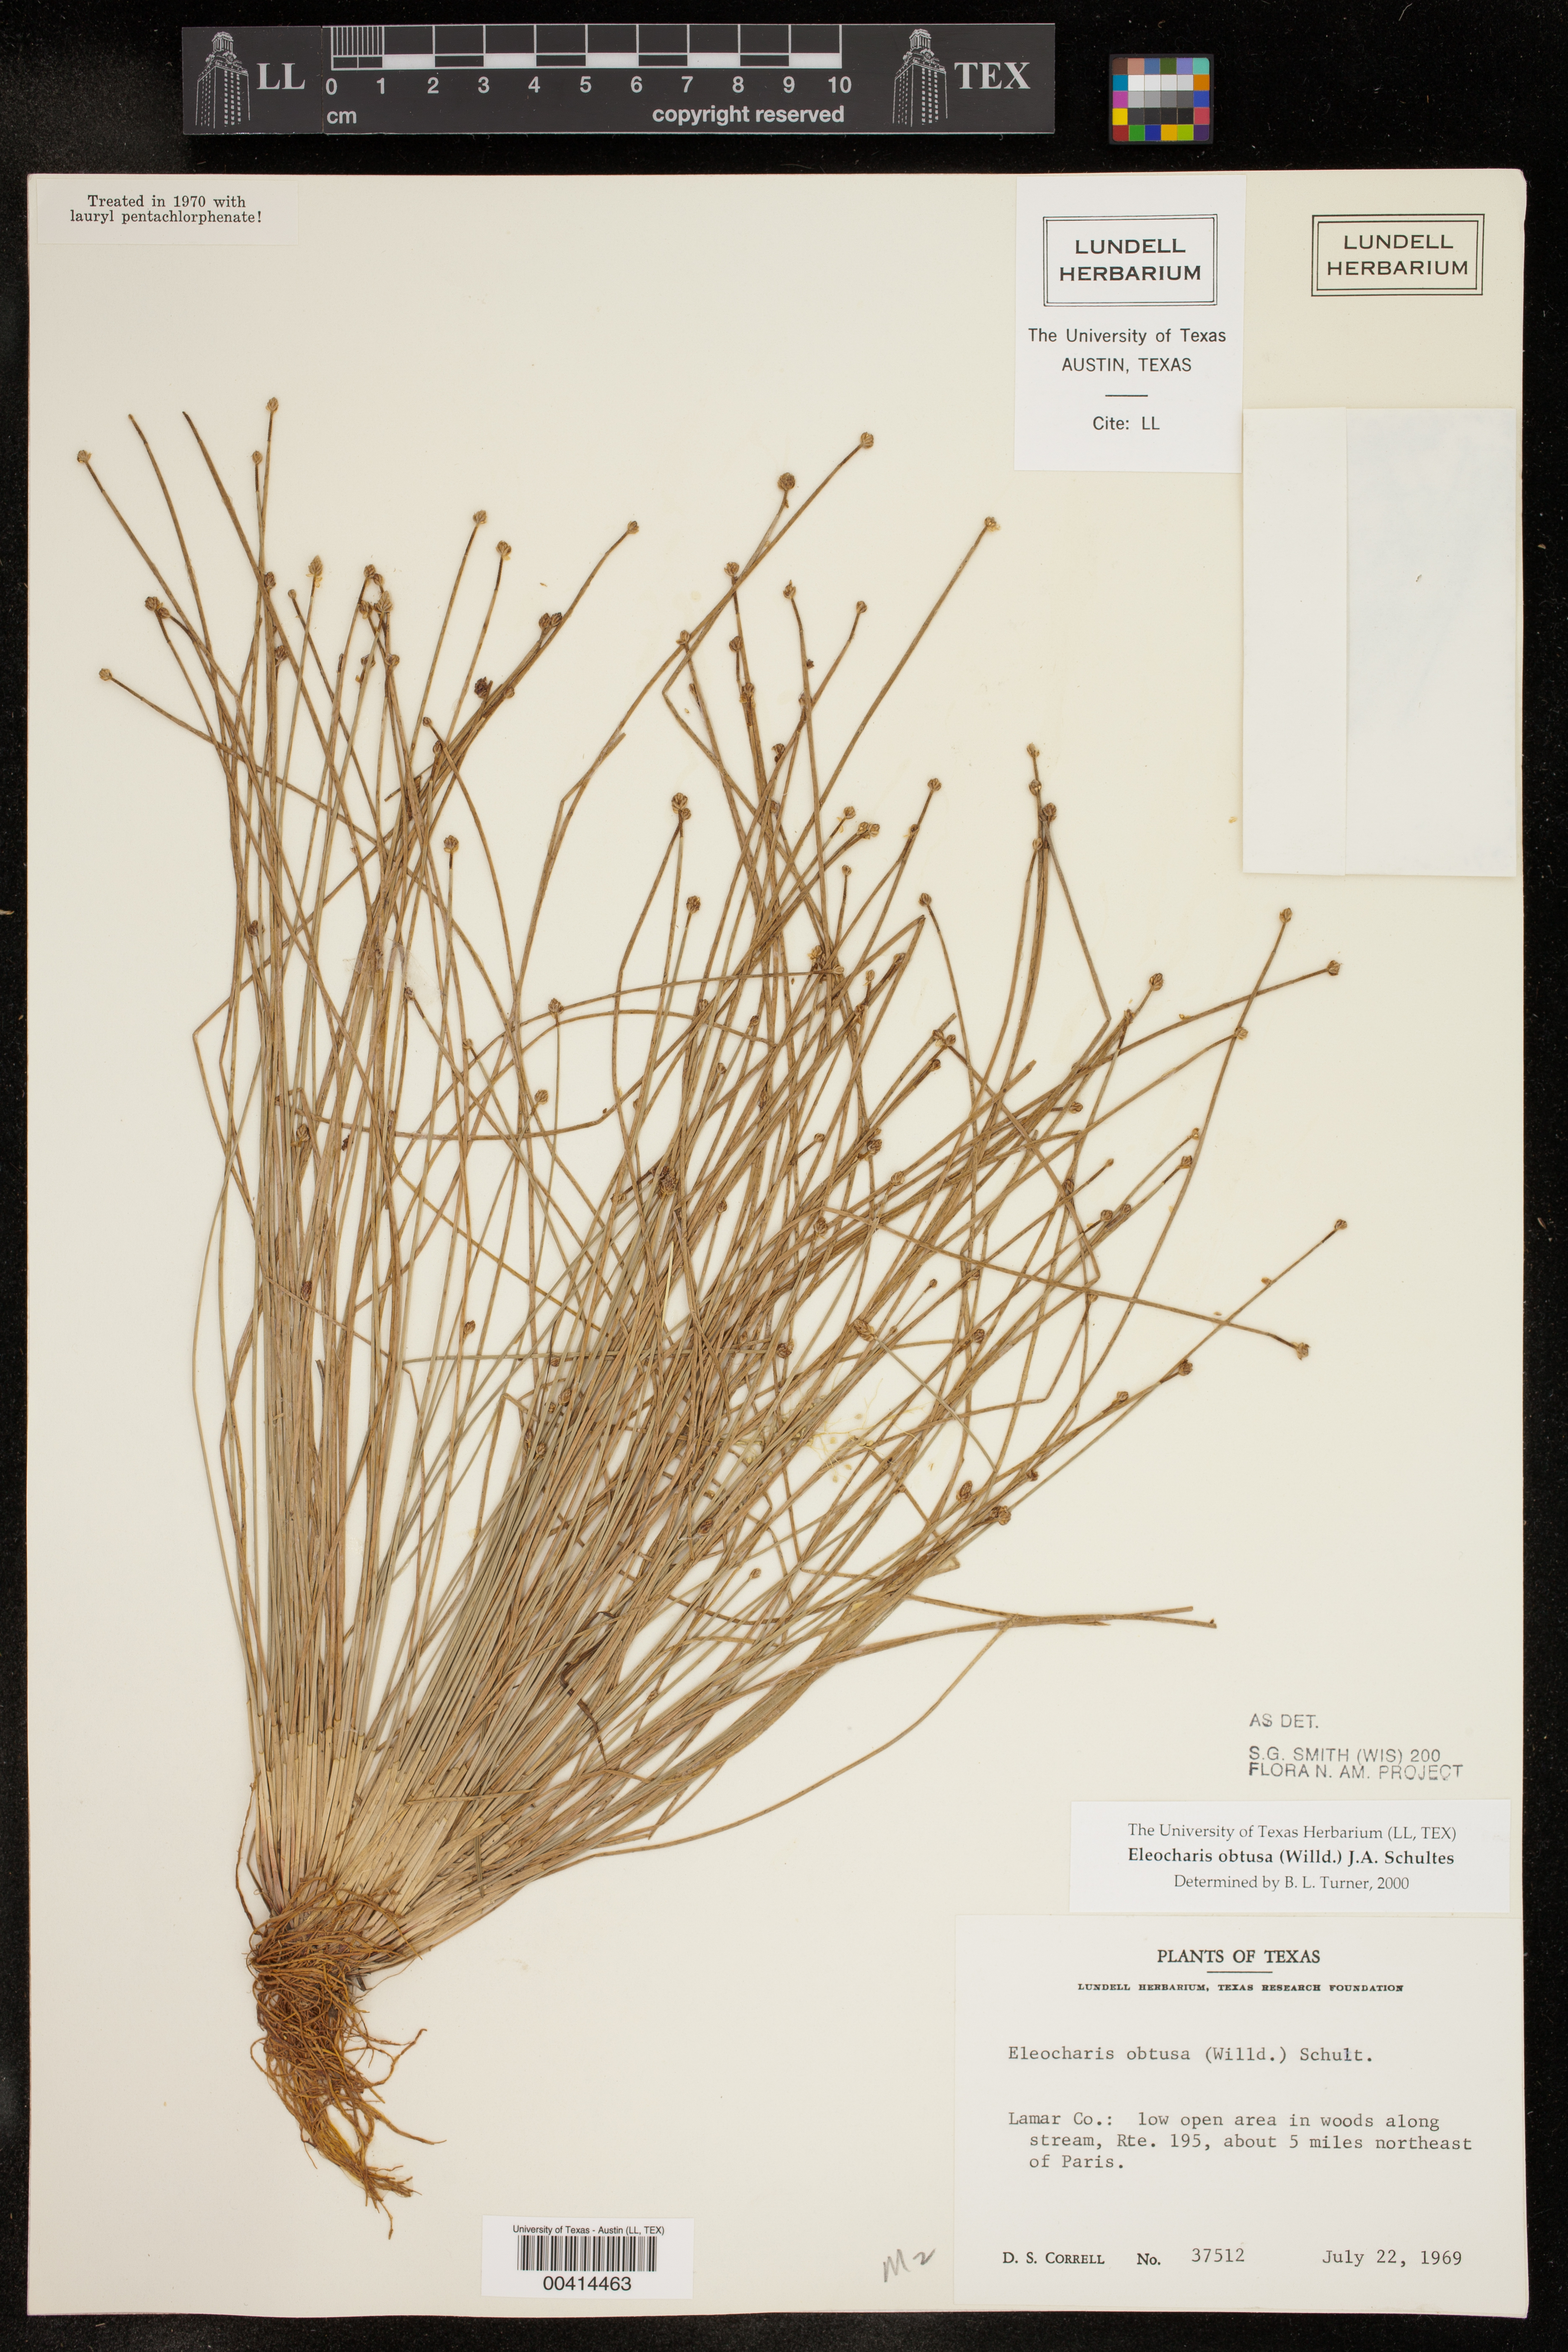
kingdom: Plantae
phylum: Tracheophyta
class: Liliopsida
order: Poales
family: Cyperaceae
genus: Eleocharis
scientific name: Eleocharis obtusa
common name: Blunt spikerush
